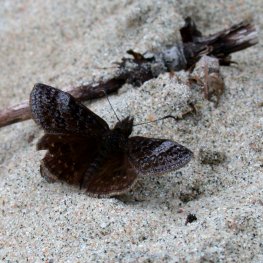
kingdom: Animalia
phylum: Arthropoda
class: Insecta
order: Lepidoptera
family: Hesperiidae
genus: Erynnis
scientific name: Erynnis icelus
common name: Dreamy Duskywing
